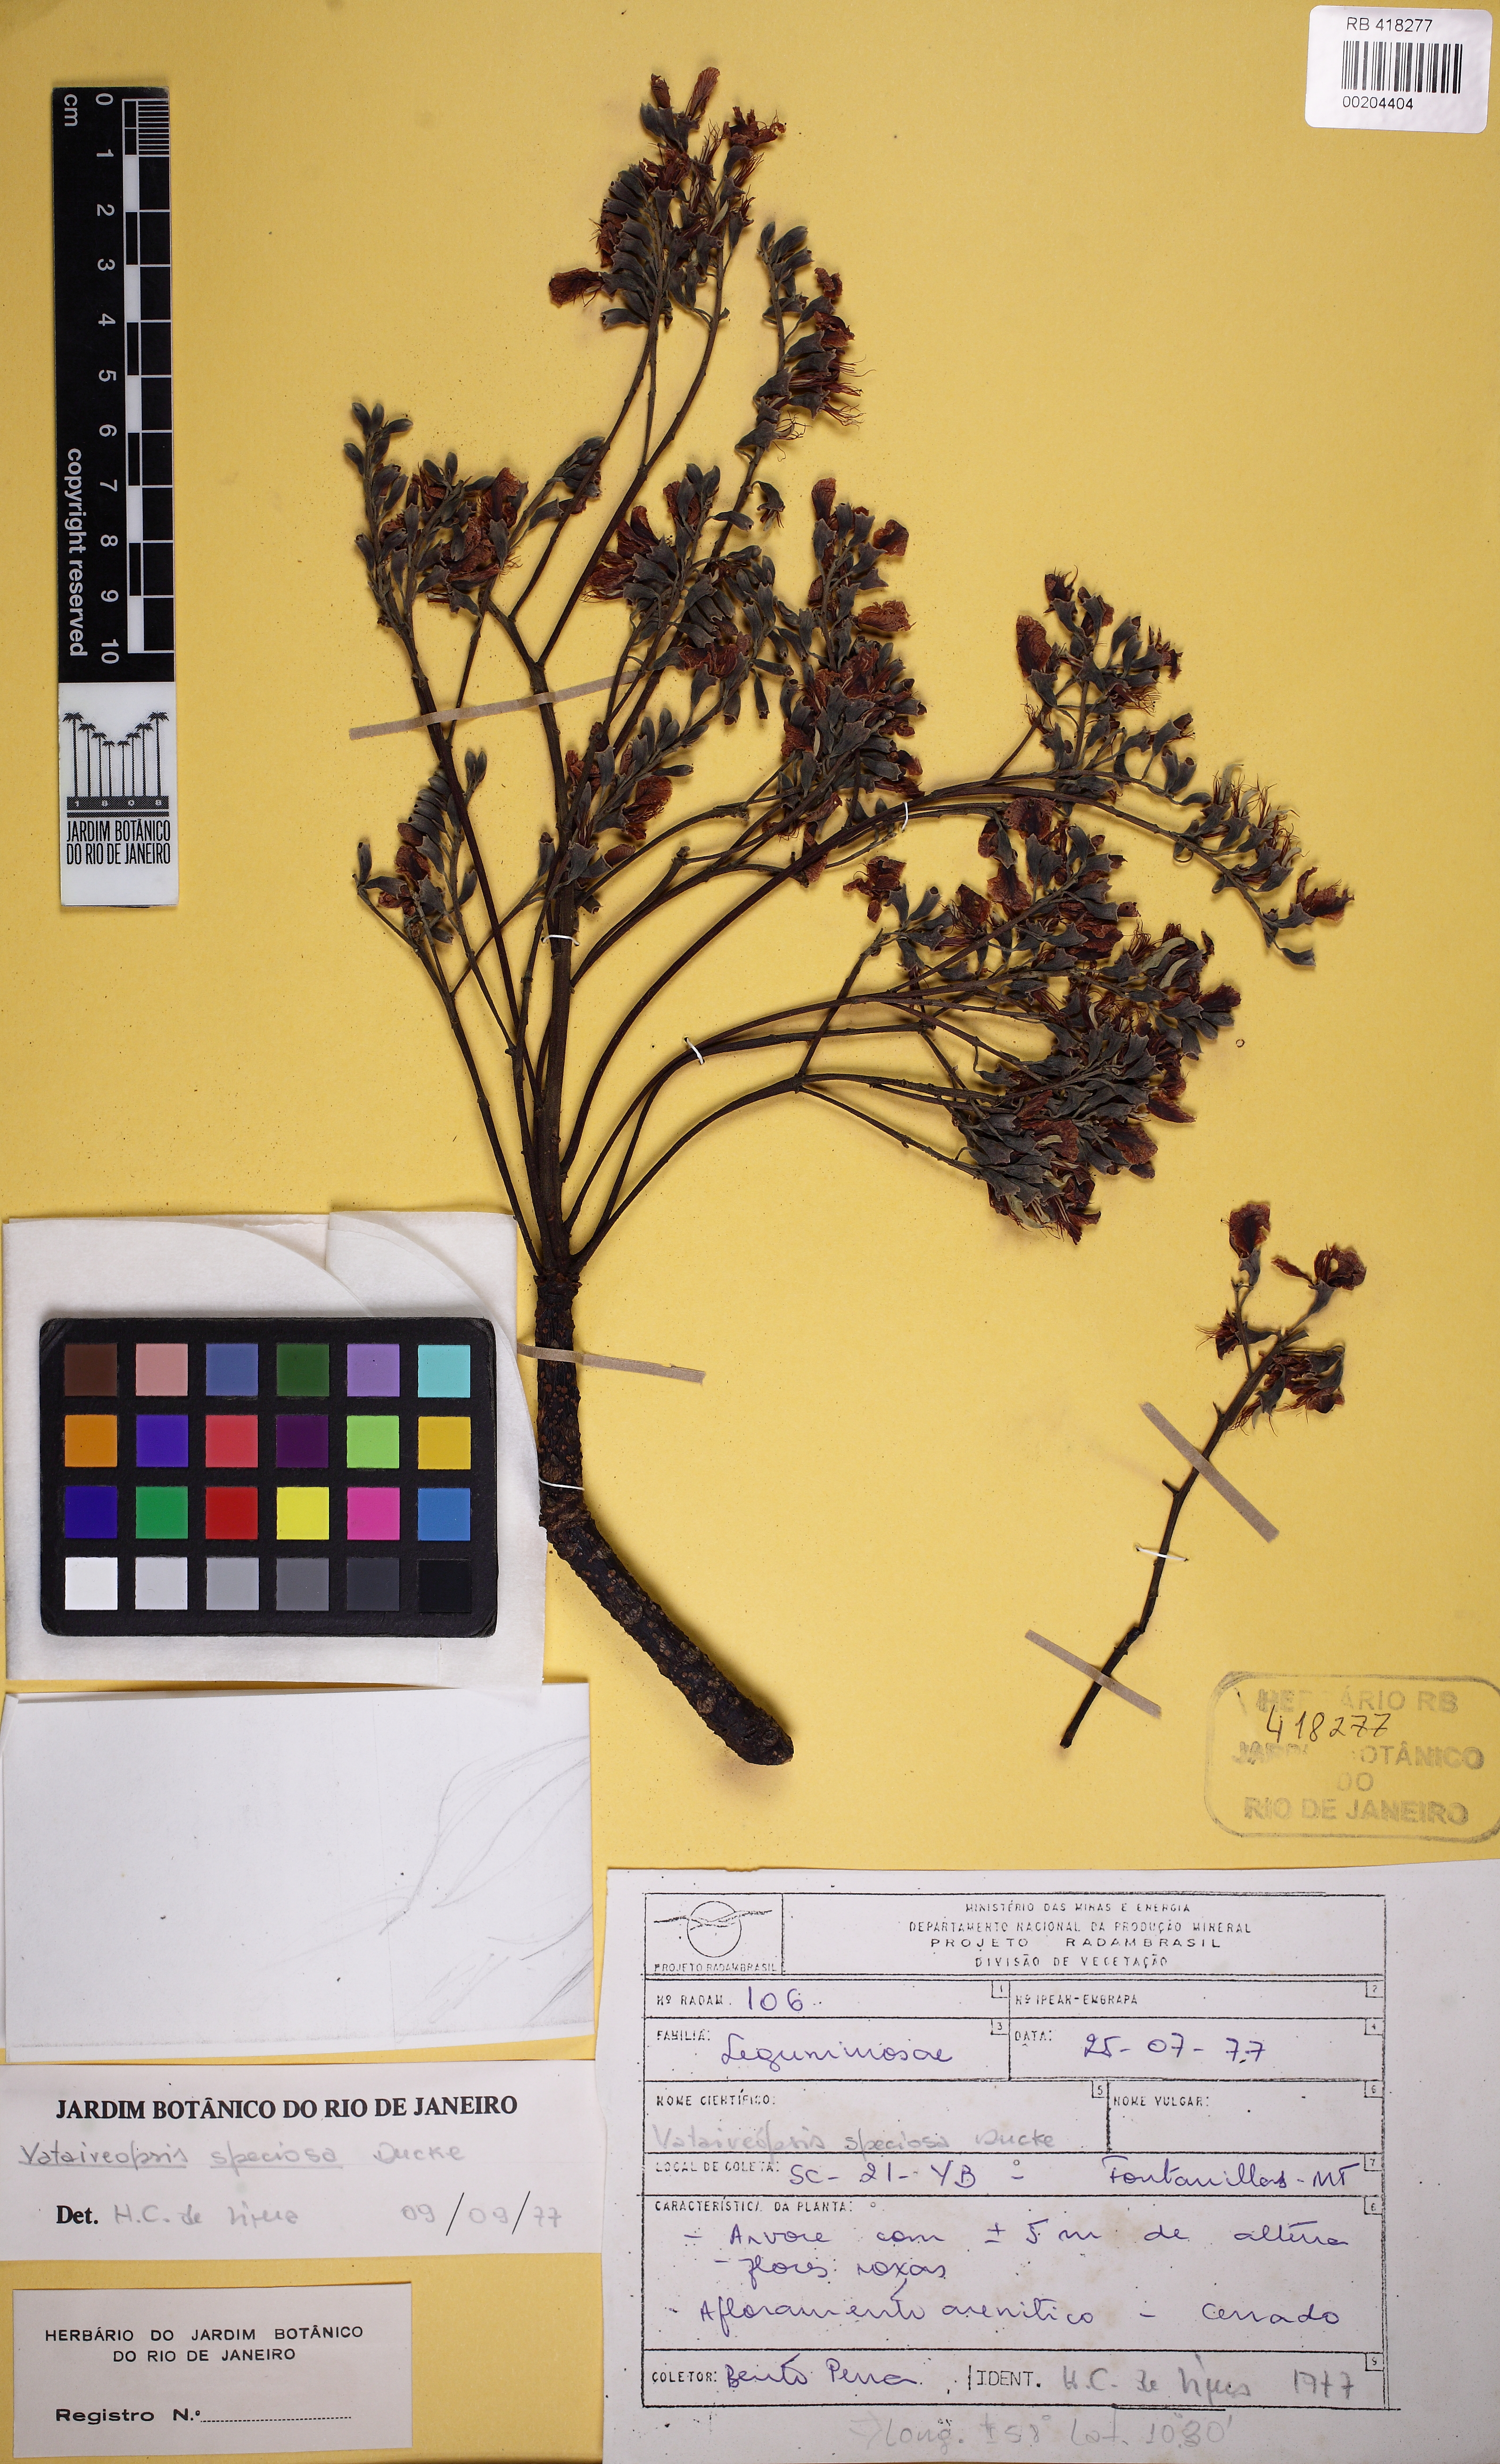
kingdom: Plantae
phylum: Tracheophyta
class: Magnoliopsida
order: Fabales
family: Fabaceae
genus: Vataireopsis
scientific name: Vataireopsis speciosa
